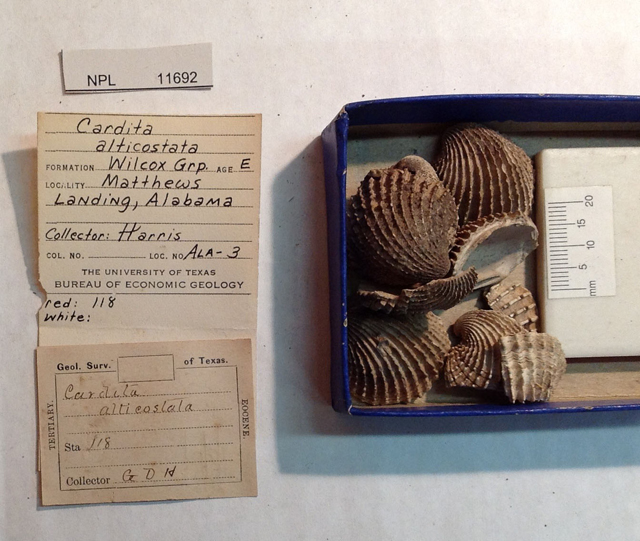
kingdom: Animalia
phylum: Mollusca
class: Bivalvia
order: Carditida
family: Carditidae
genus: Baluchicardia
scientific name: Baluchicardia Venericardia alticostata
